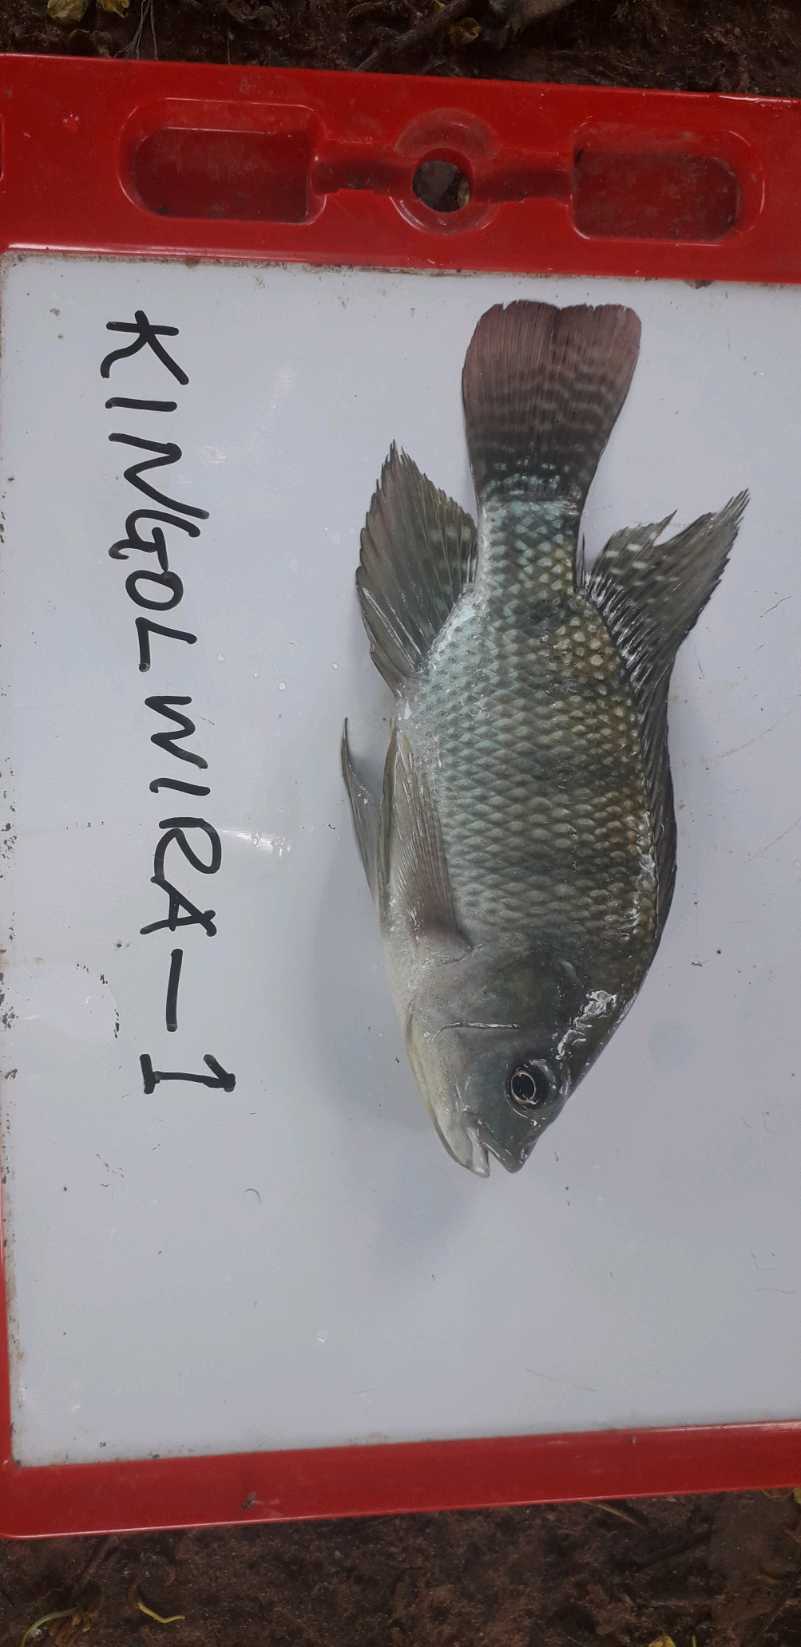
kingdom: Animalia
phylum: Chordata
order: Perciformes
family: Cichlidae
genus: Oreochromis
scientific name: Oreochromis niloticus
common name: Nile tilapia
